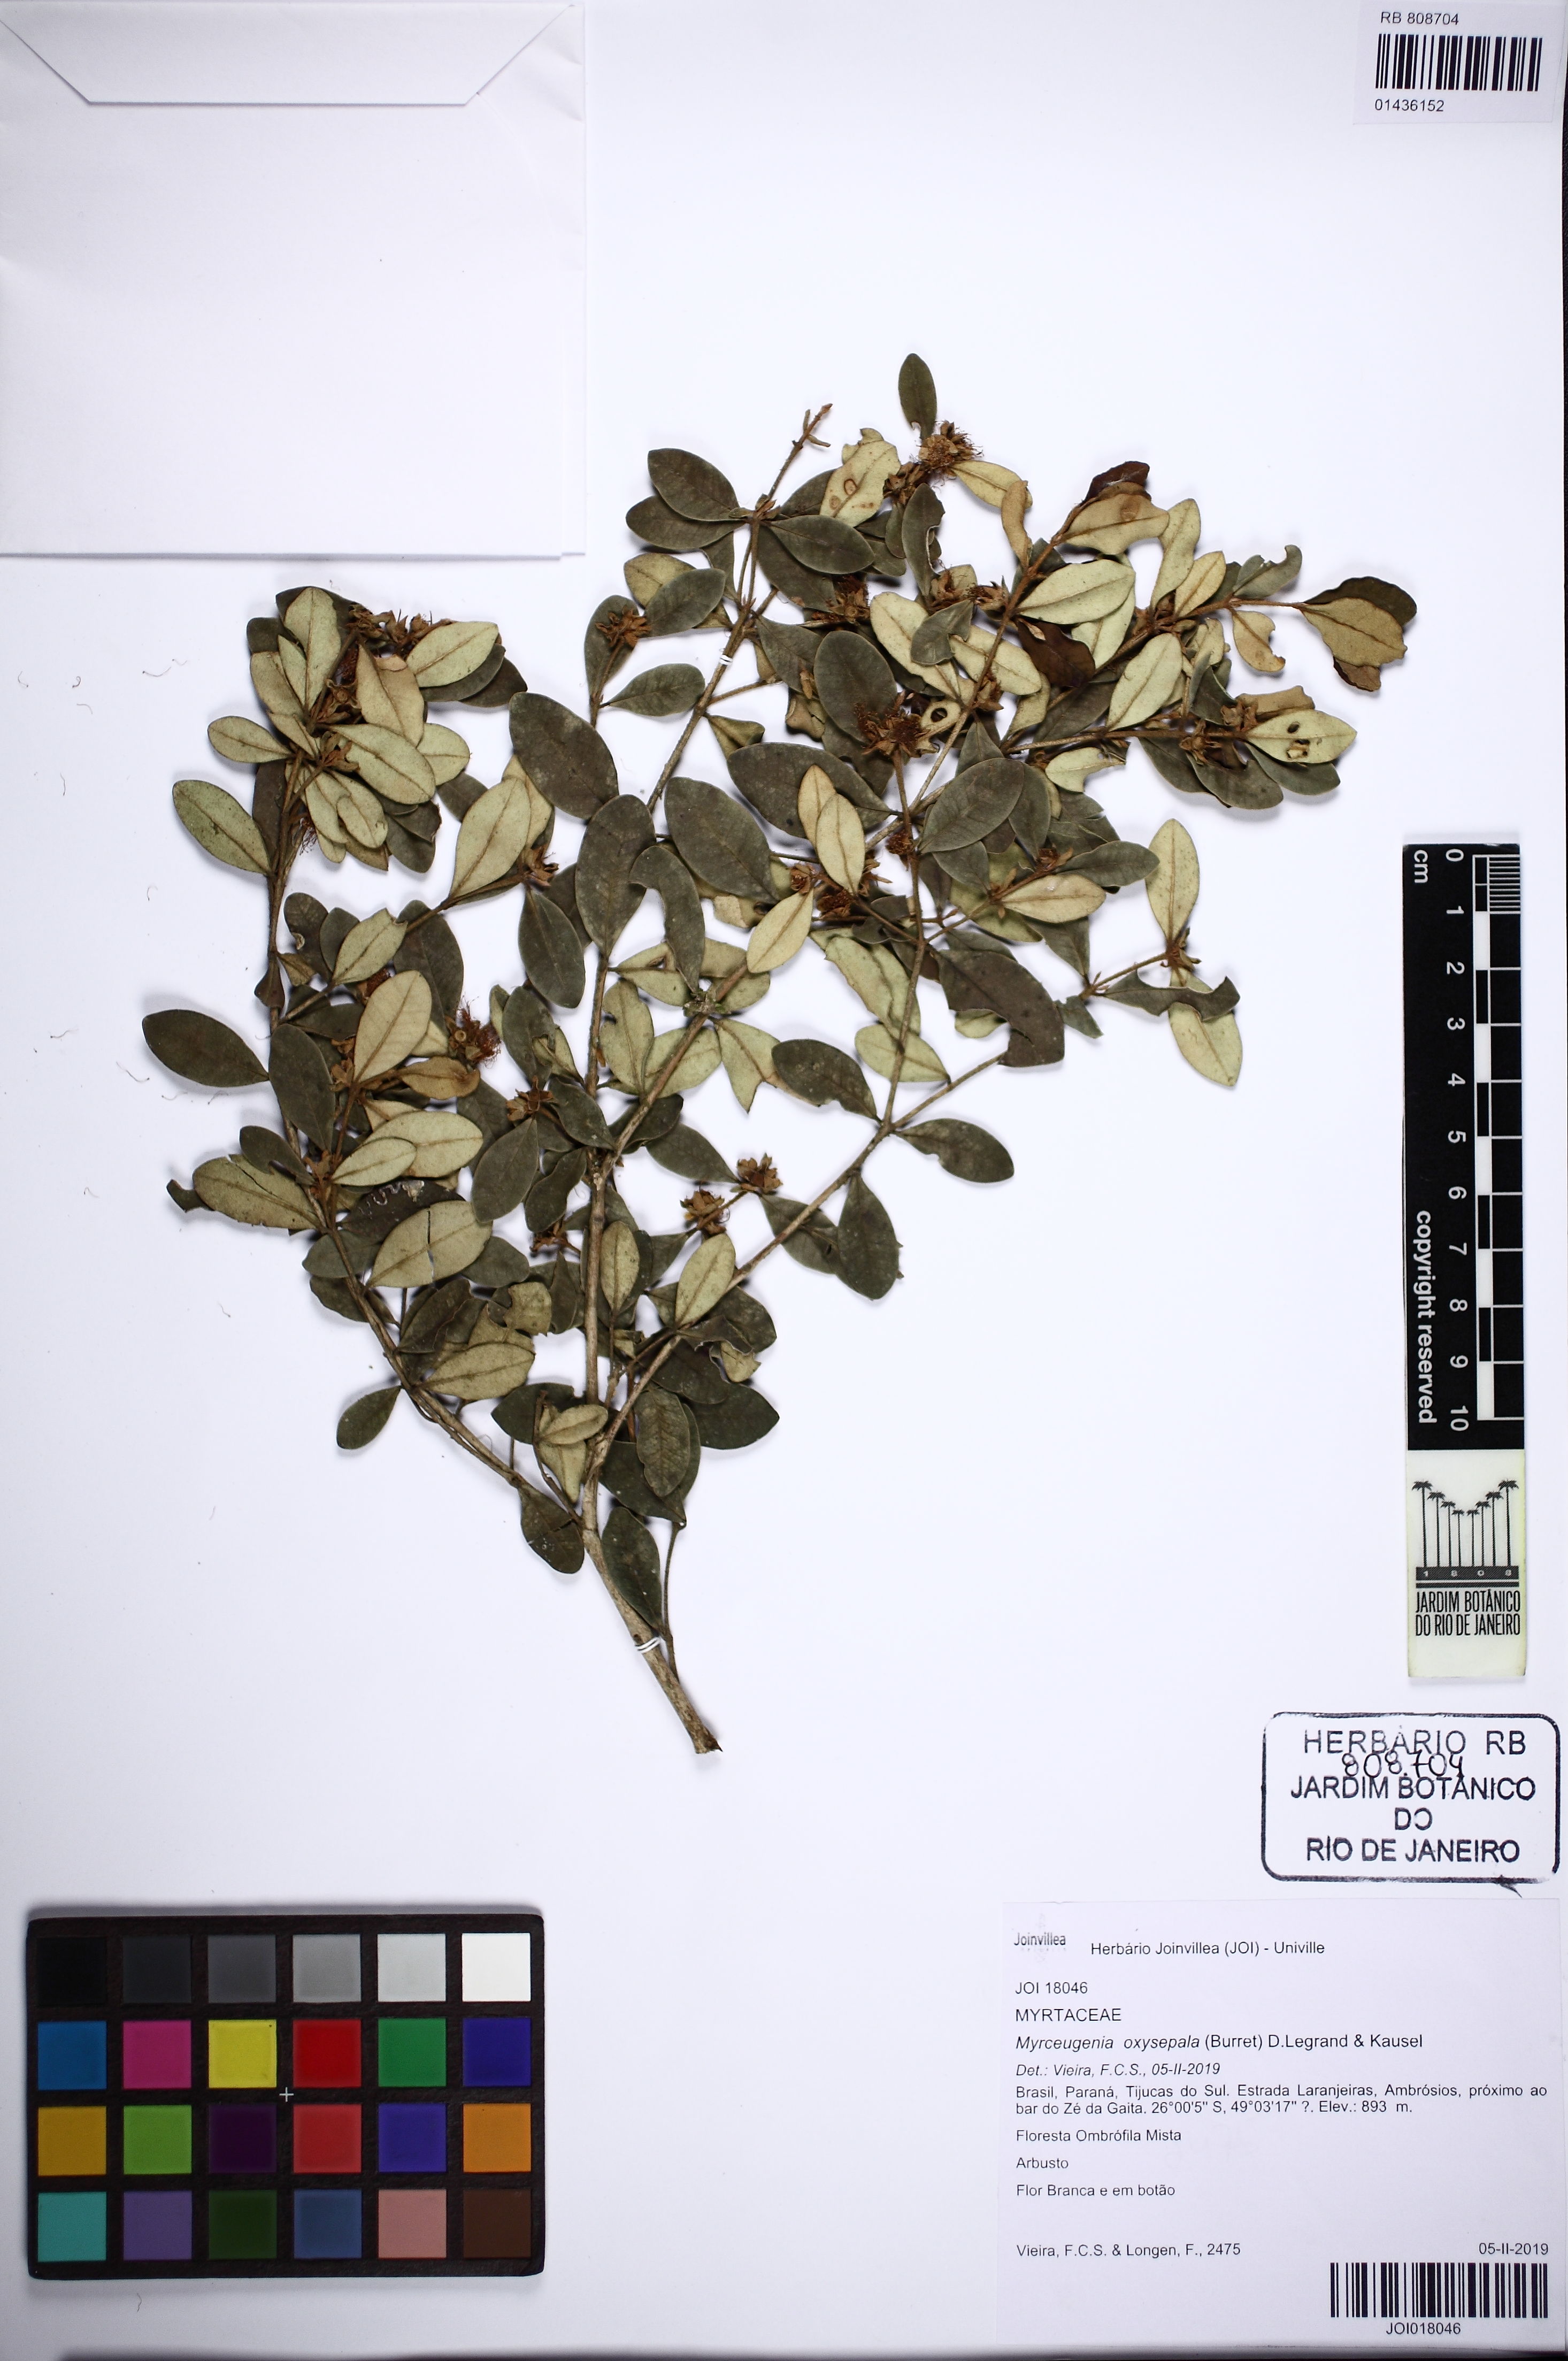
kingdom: Plantae
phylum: Tracheophyta
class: Magnoliopsida
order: Myrtales
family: Myrtaceae
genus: Myrceugenia
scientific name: Myrceugenia oxysepala
